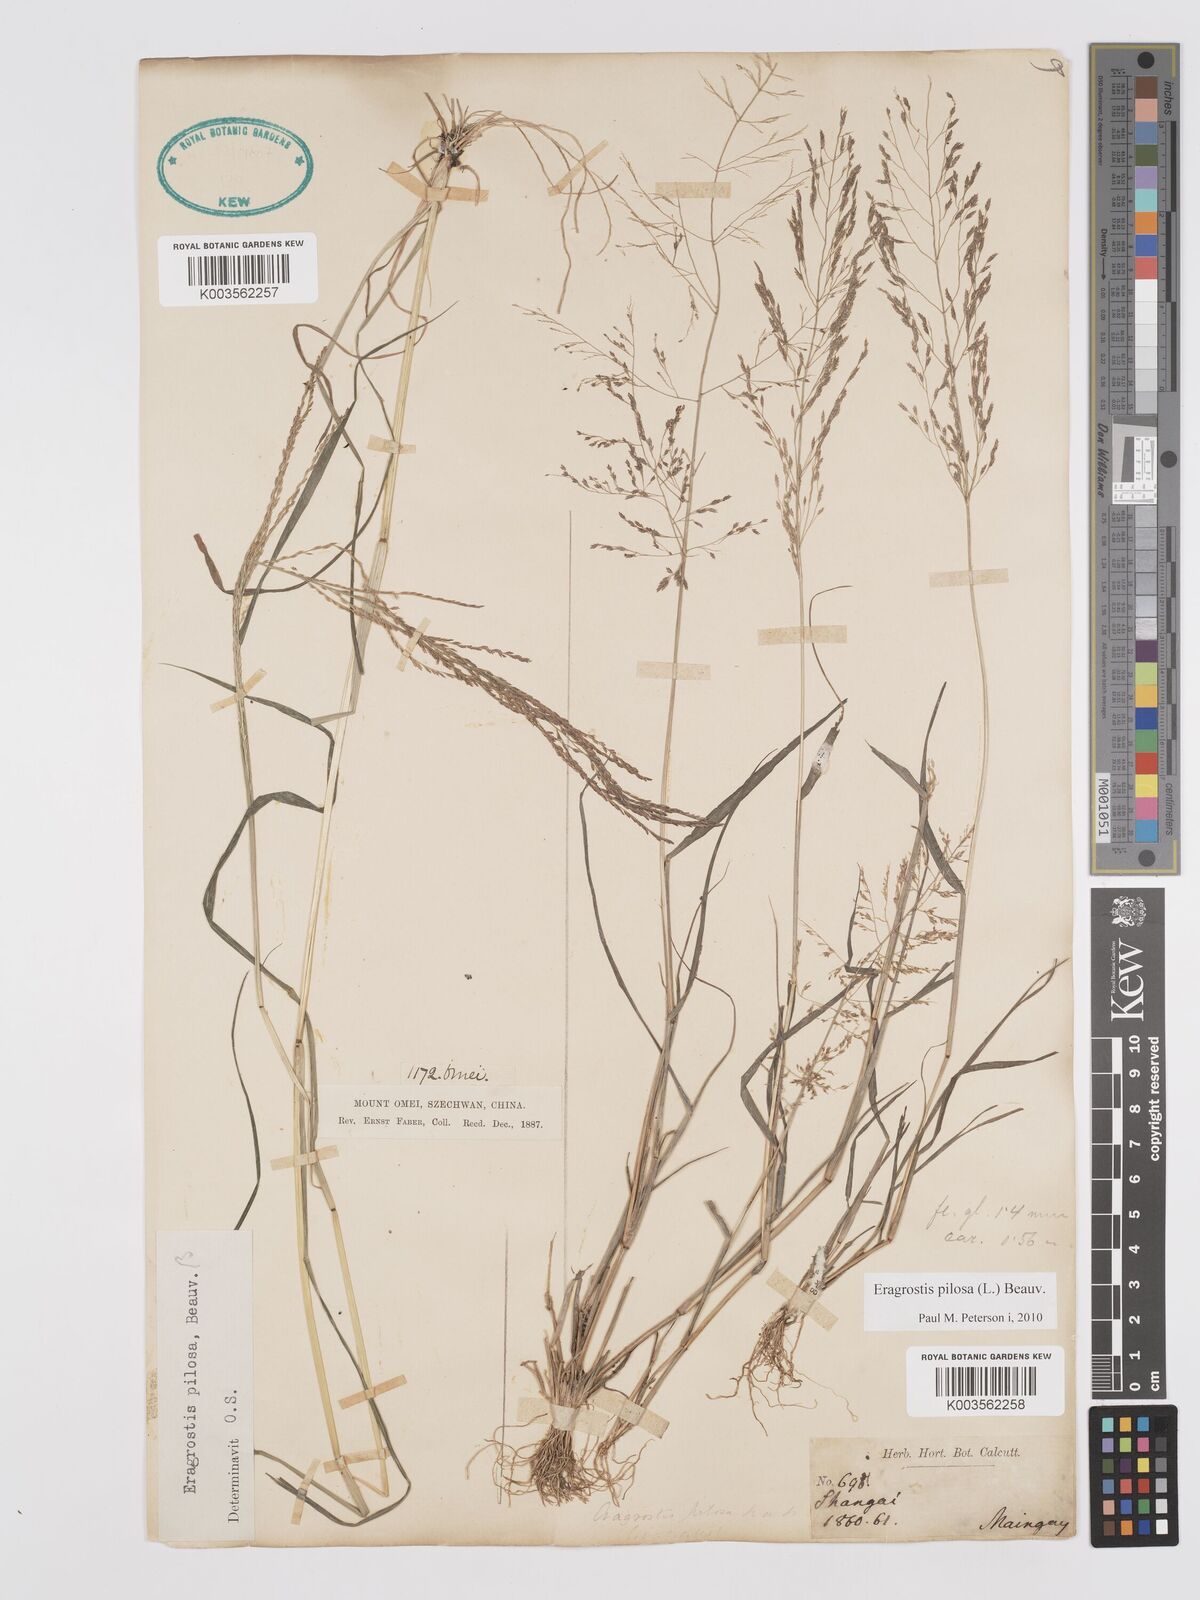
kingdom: Plantae
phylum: Tracheophyta
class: Liliopsida
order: Poales
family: Poaceae
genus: Eragrostis
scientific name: Eragrostis pilosa
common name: Indian lovegrass
